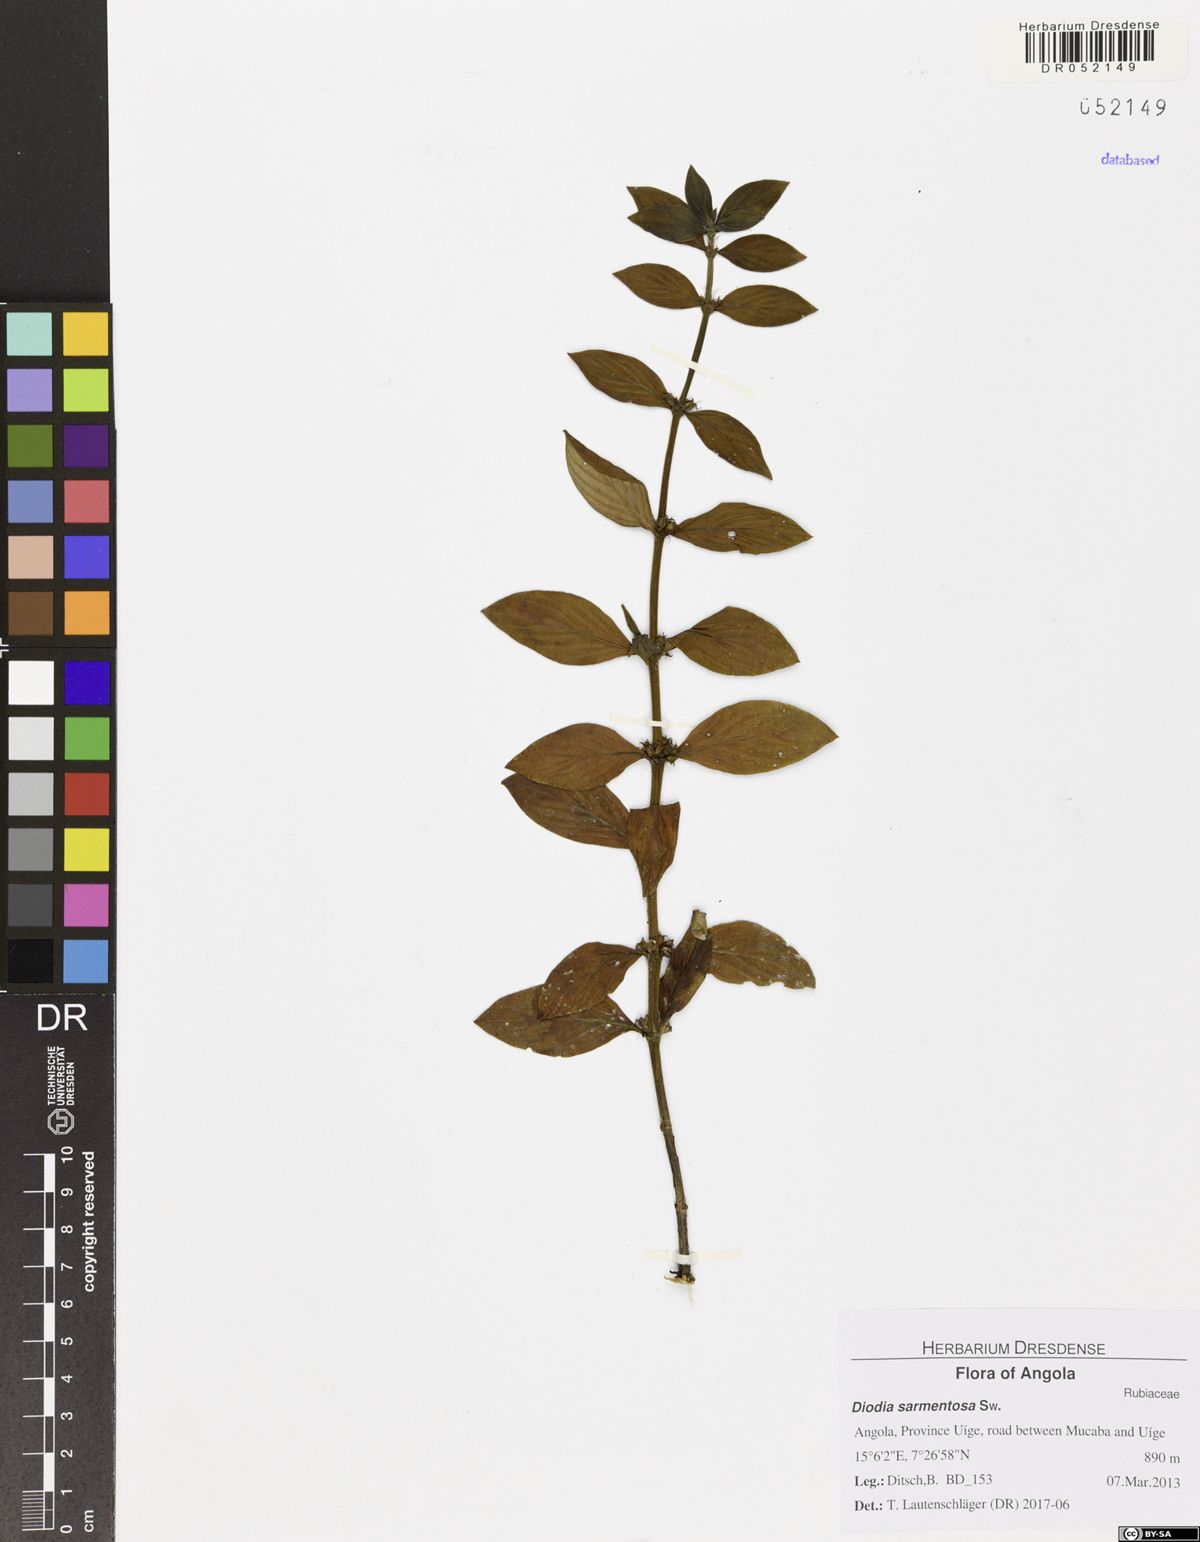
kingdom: Plantae
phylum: Tracheophyta
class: Magnoliopsida
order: Gentianales
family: Rubiaceae
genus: Hexasepalum
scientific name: Hexasepalum sarmentosum
